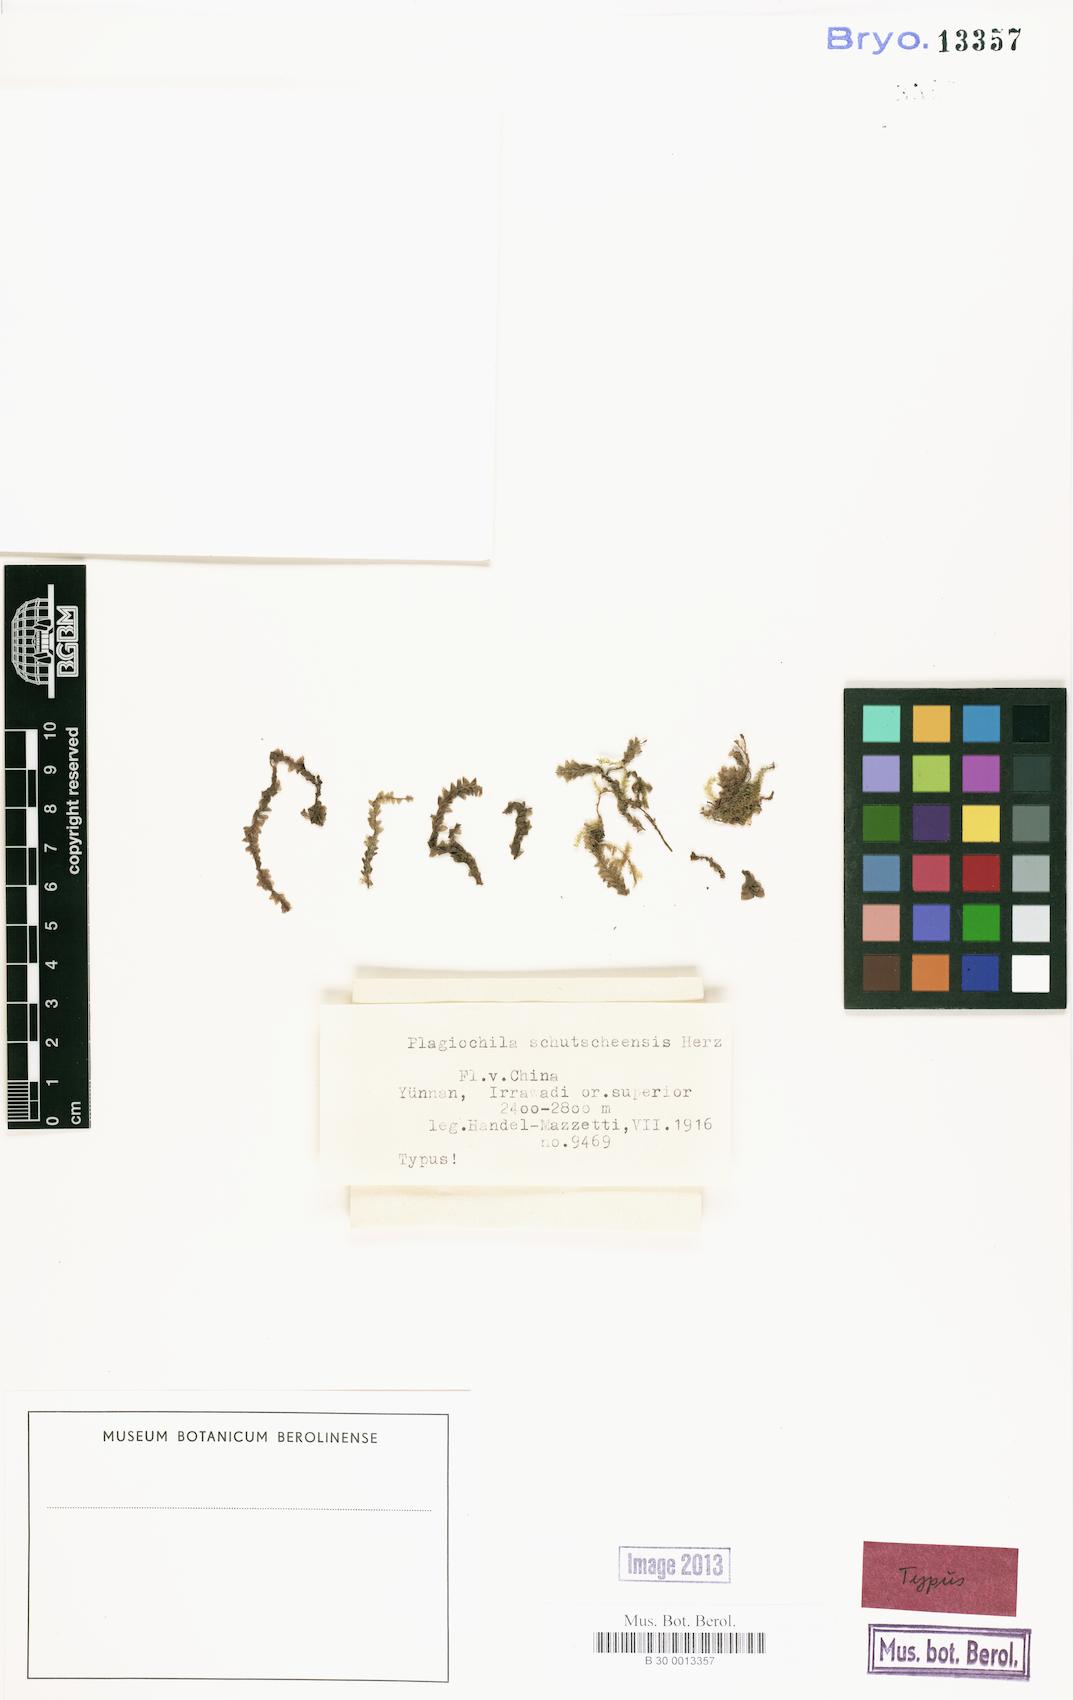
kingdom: Plantae
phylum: Marchantiophyta
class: Jungermanniopsida
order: Jungermanniales
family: Plagiochilaceae
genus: Plagiochila
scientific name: Plagiochila
